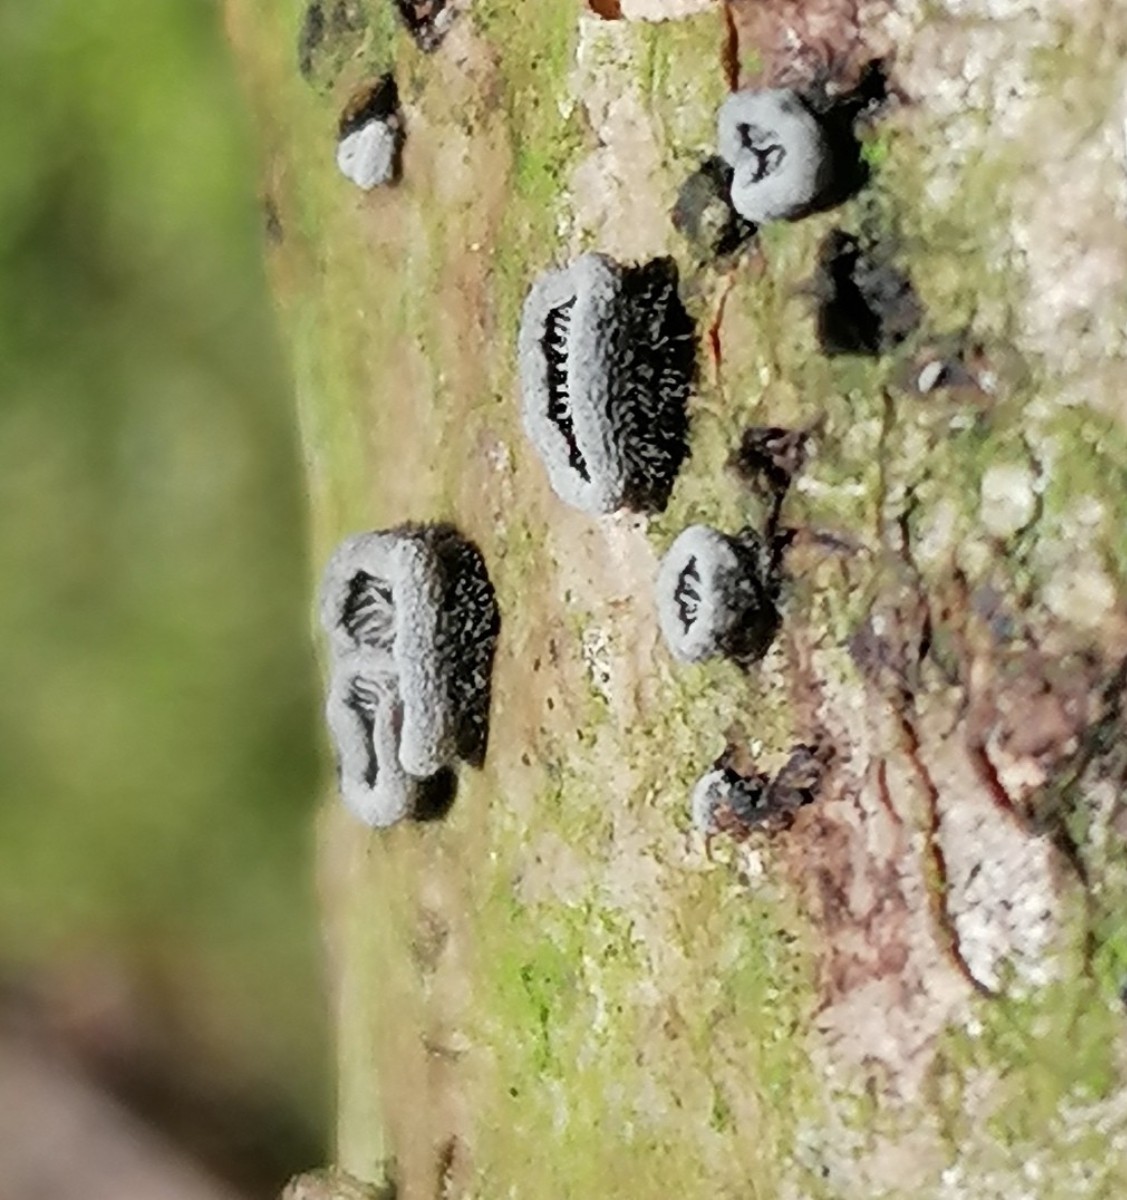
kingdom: Fungi
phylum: Basidiomycota
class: Agaricomycetes
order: Agaricales
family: Pleurotaceae
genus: Resupinatus
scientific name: Resupinatus trichotis
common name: mørkfiltet barkhat
